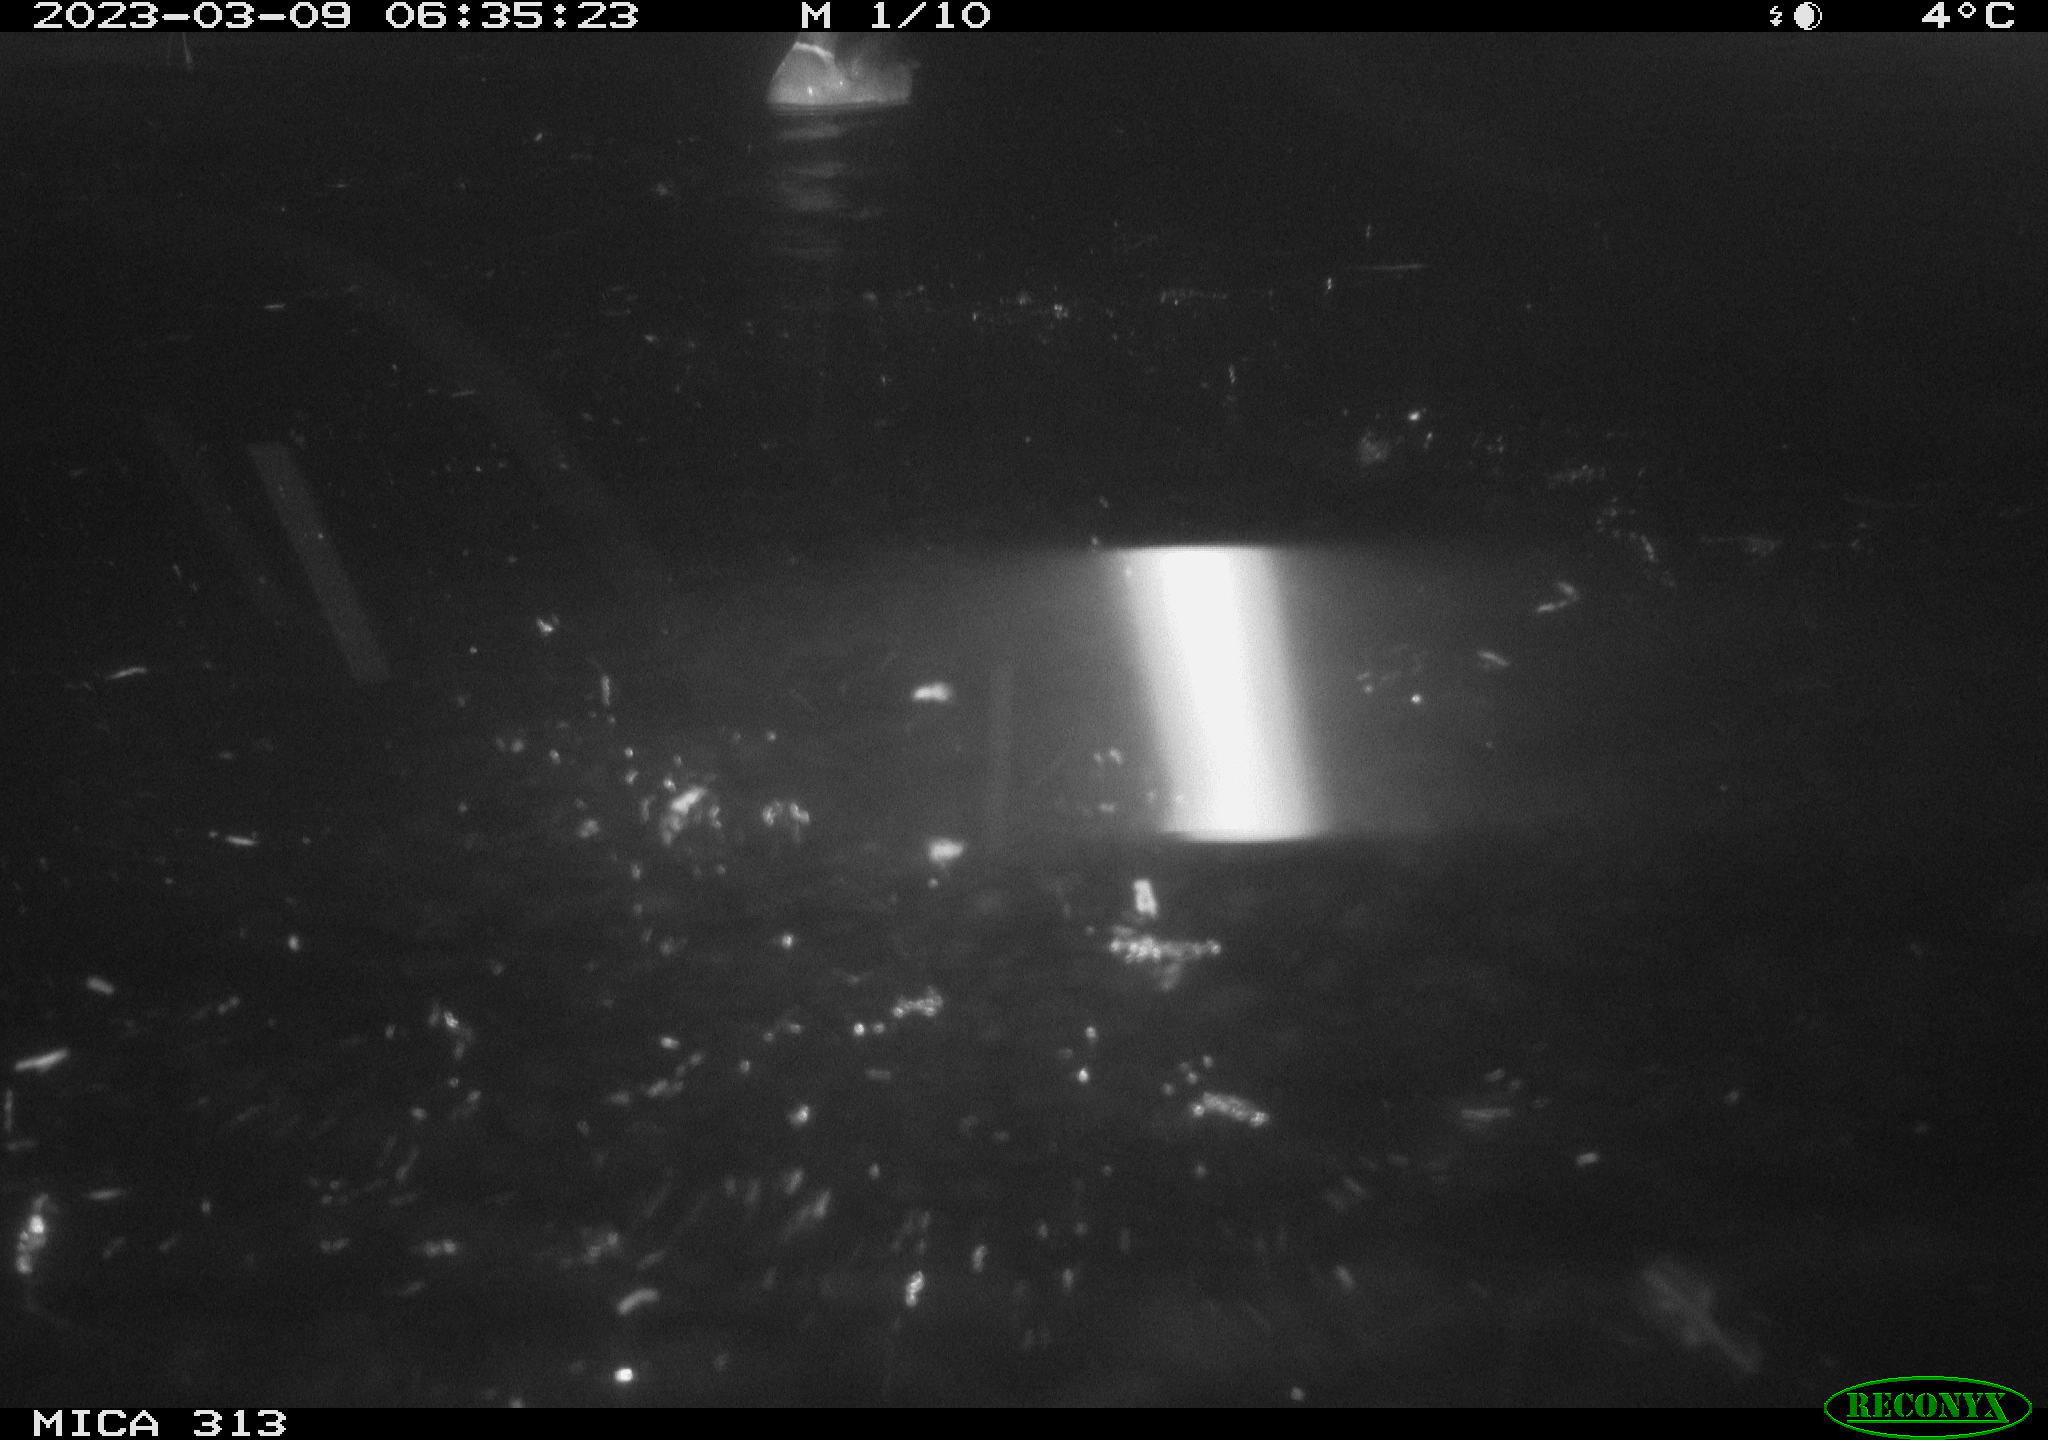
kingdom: Animalia
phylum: Chordata
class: Aves
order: Anseriformes
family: Anatidae
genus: Anas
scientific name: Anas
